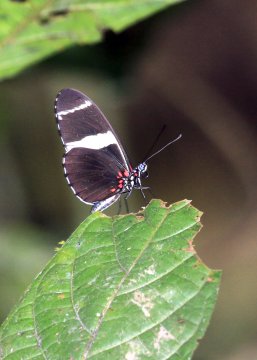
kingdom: Animalia
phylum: Arthropoda
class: Insecta
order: Lepidoptera
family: Nymphalidae
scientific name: Nymphalidae
